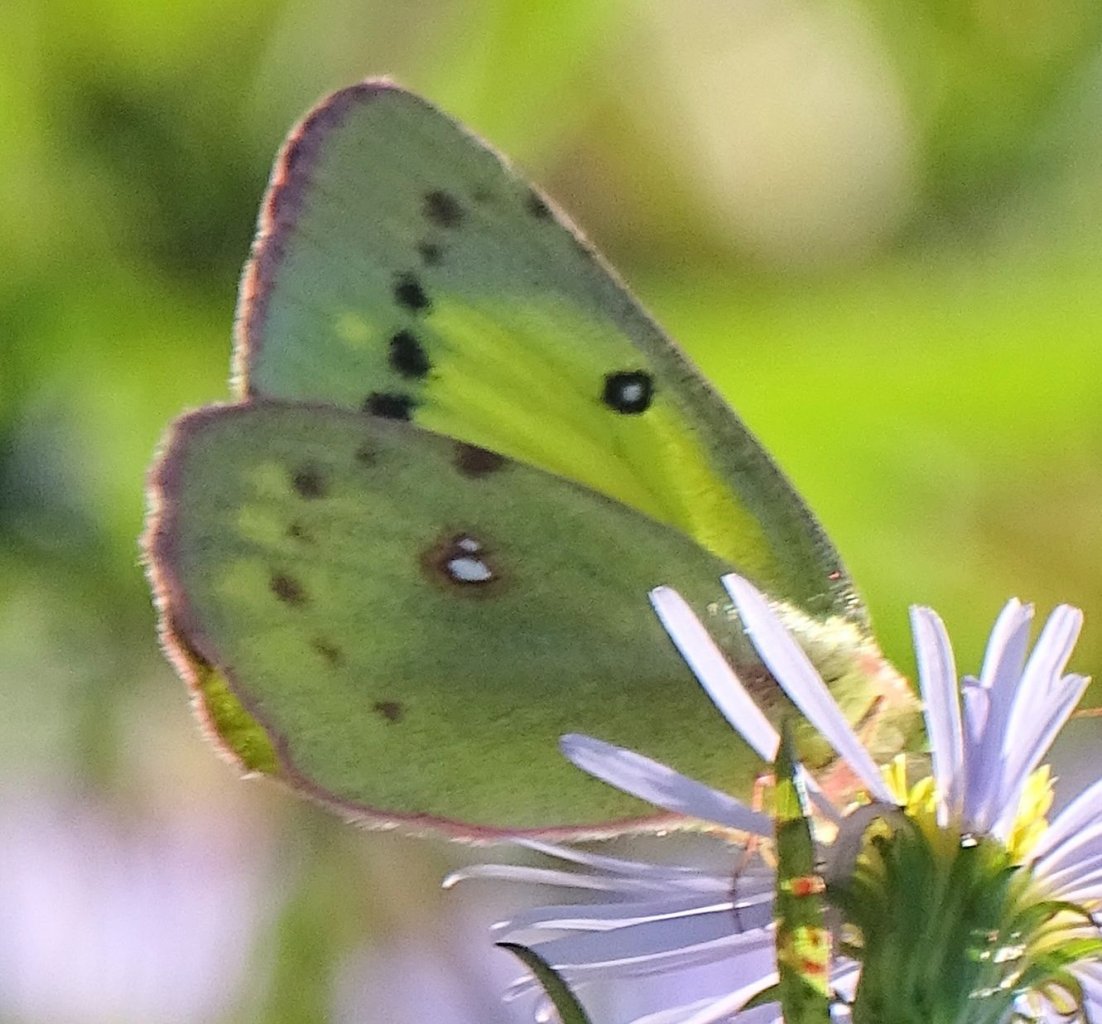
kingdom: Animalia
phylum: Arthropoda
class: Insecta
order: Lepidoptera
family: Pieridae
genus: Colias
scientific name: Colias philodice
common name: Clouded Sulphur
